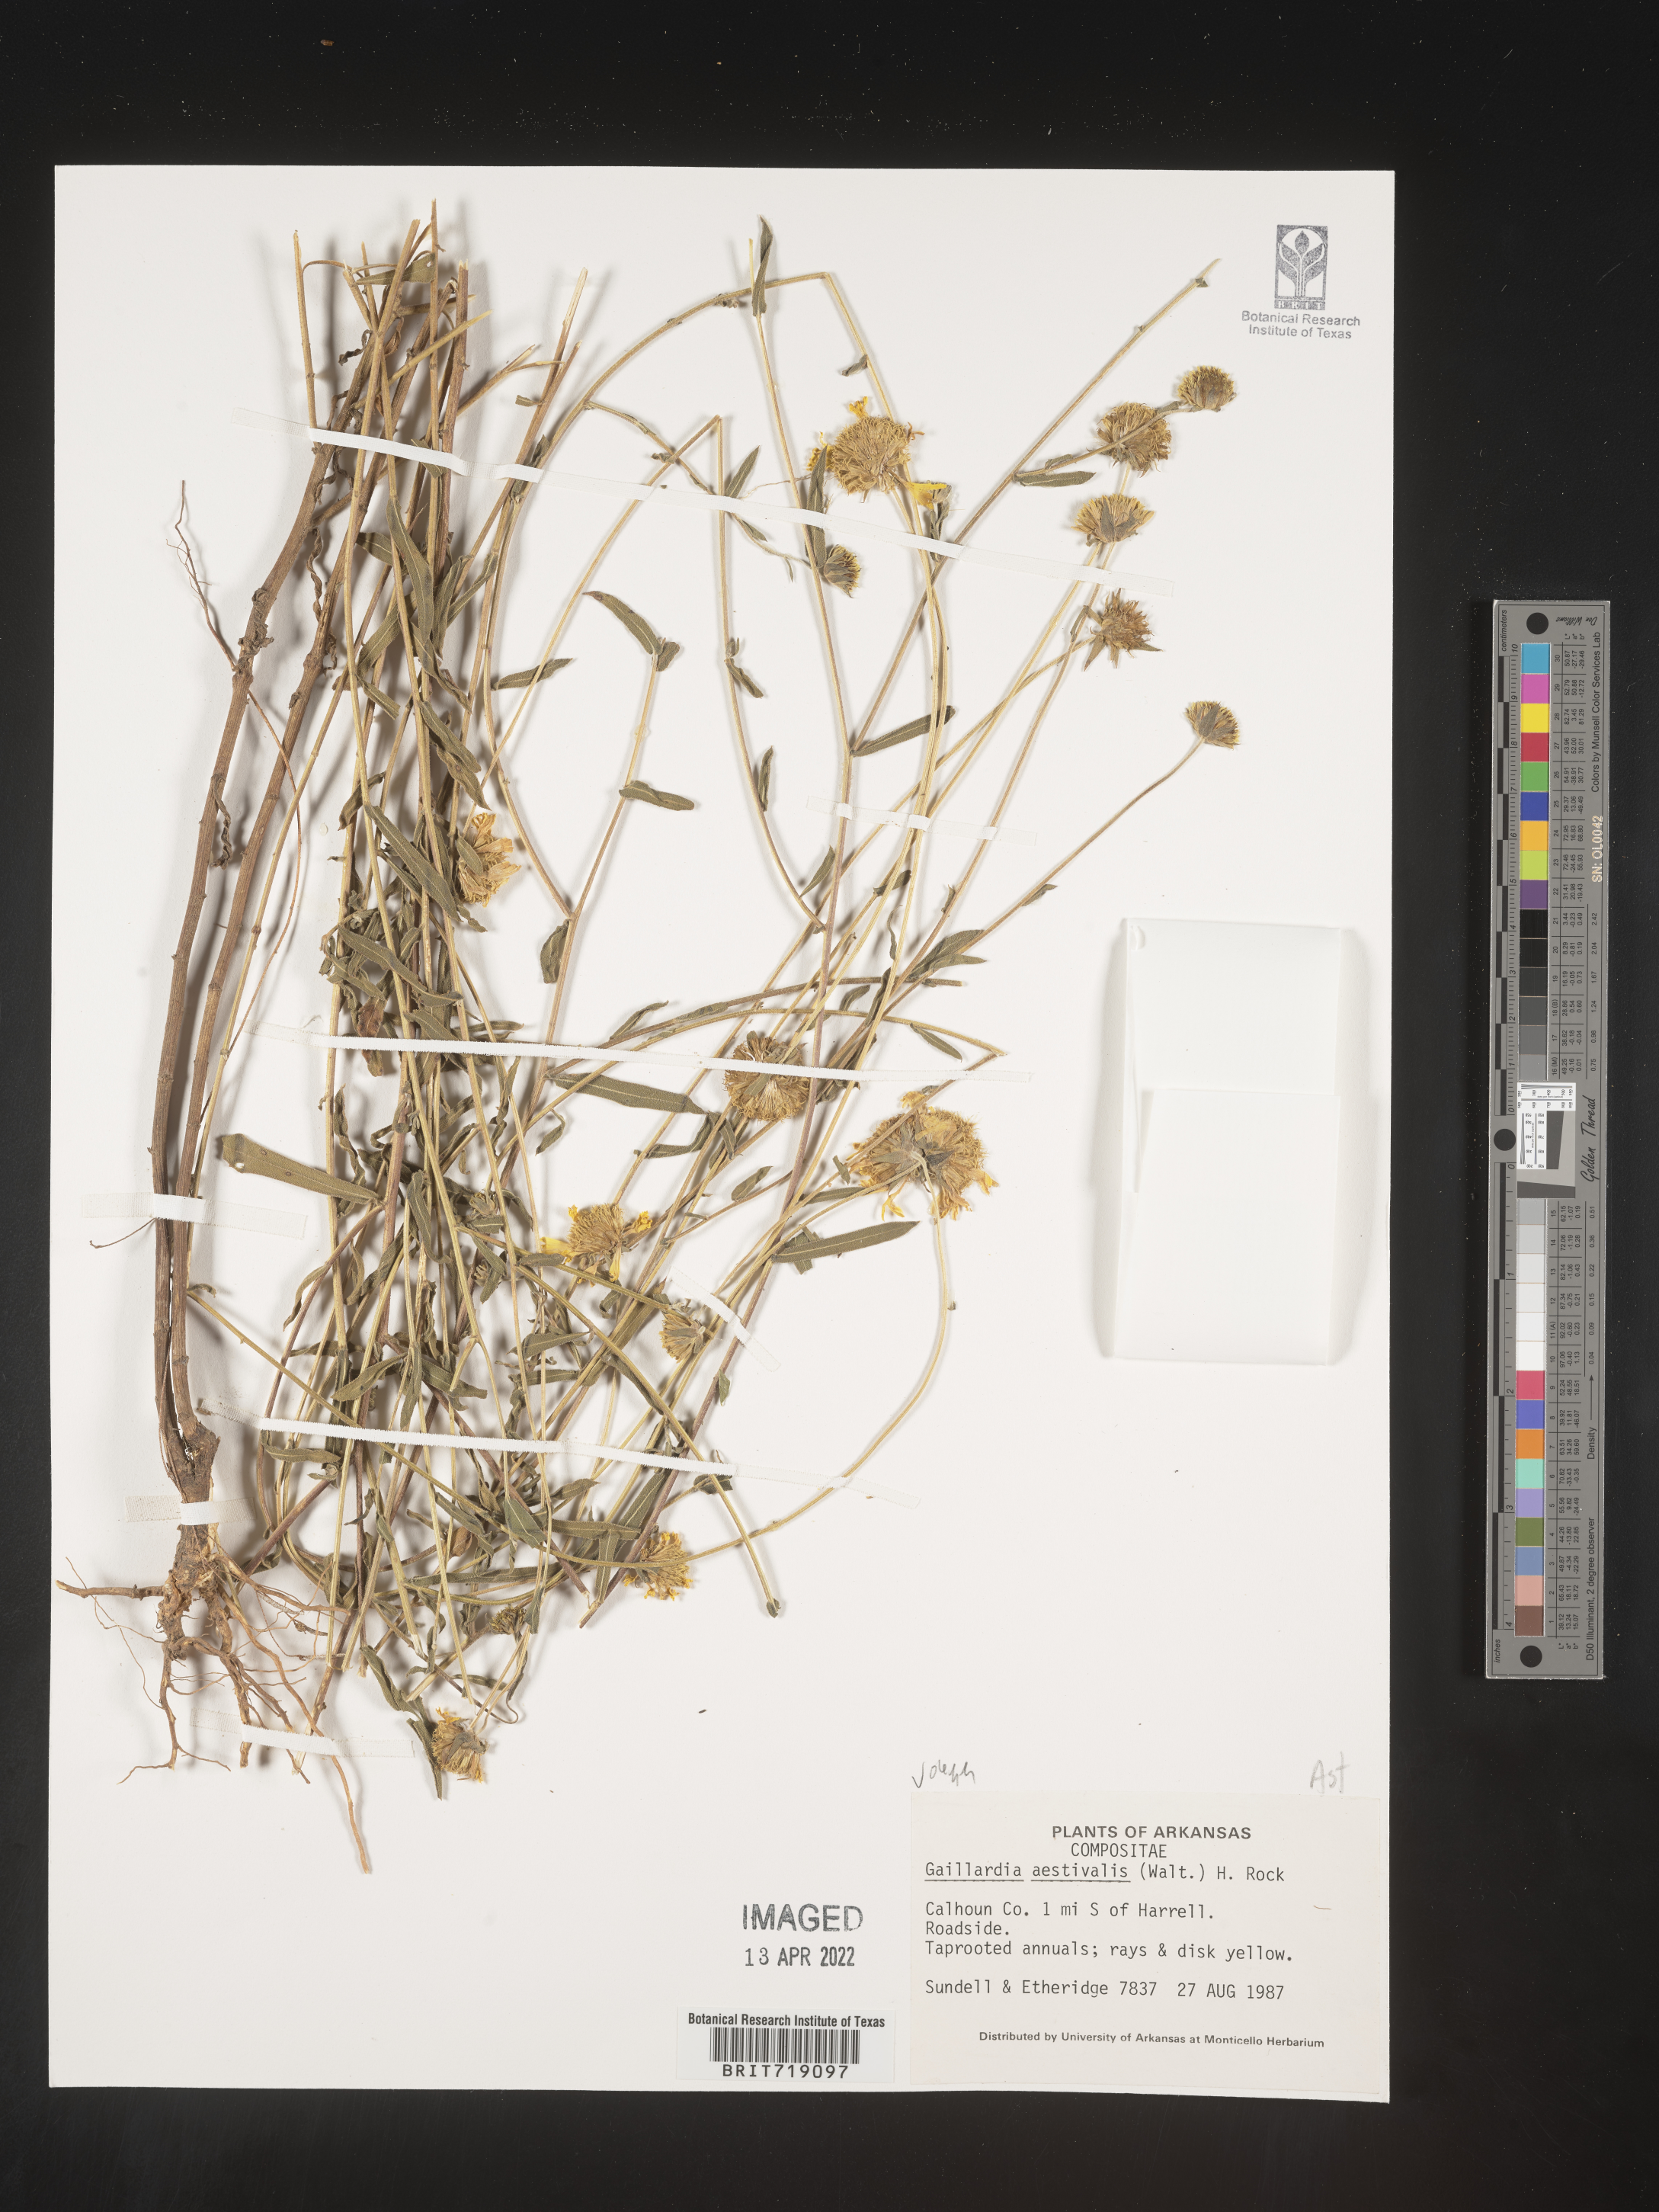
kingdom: Plantae
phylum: Tracheophyta
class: Magnoliopsida
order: Asterales
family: Asteraceae
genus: Gaillardia
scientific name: Gaillardia aestivalis
